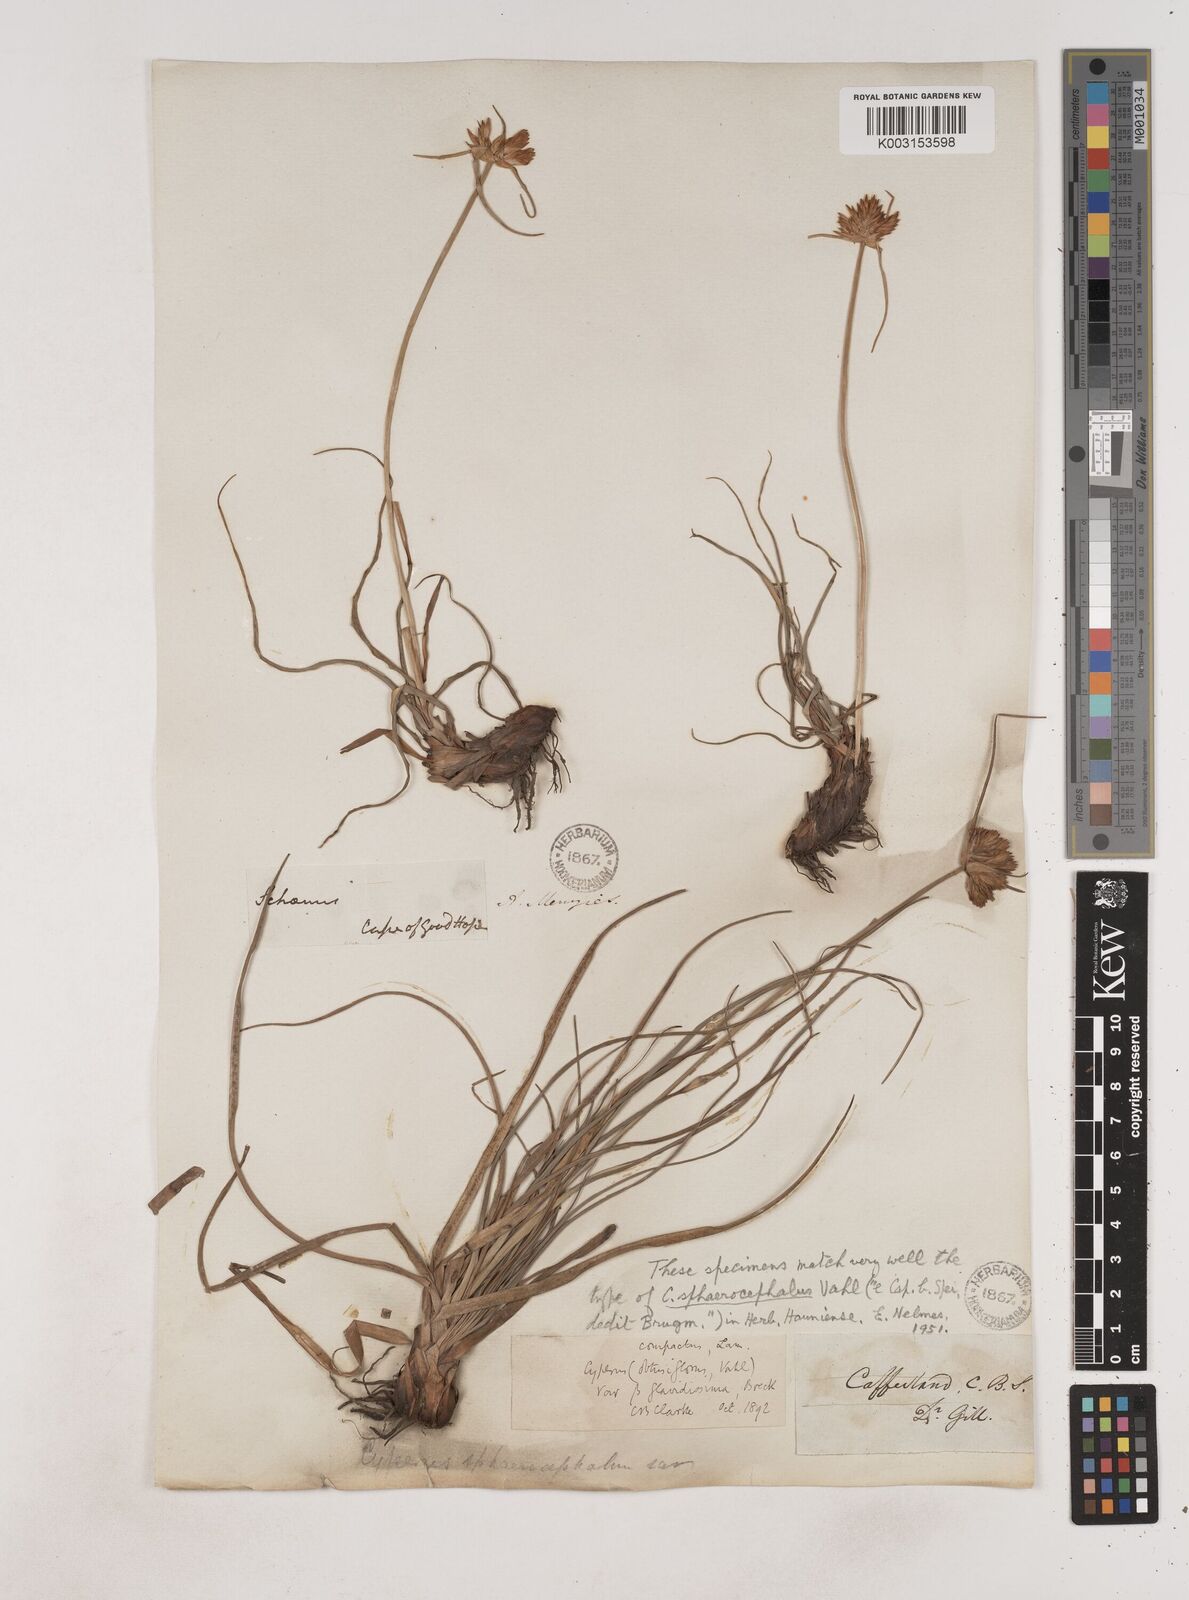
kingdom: Plantae
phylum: Tracheophyta
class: Liliopsida
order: Poales
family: Cyperaceae
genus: Cyperus
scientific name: Cyperus
